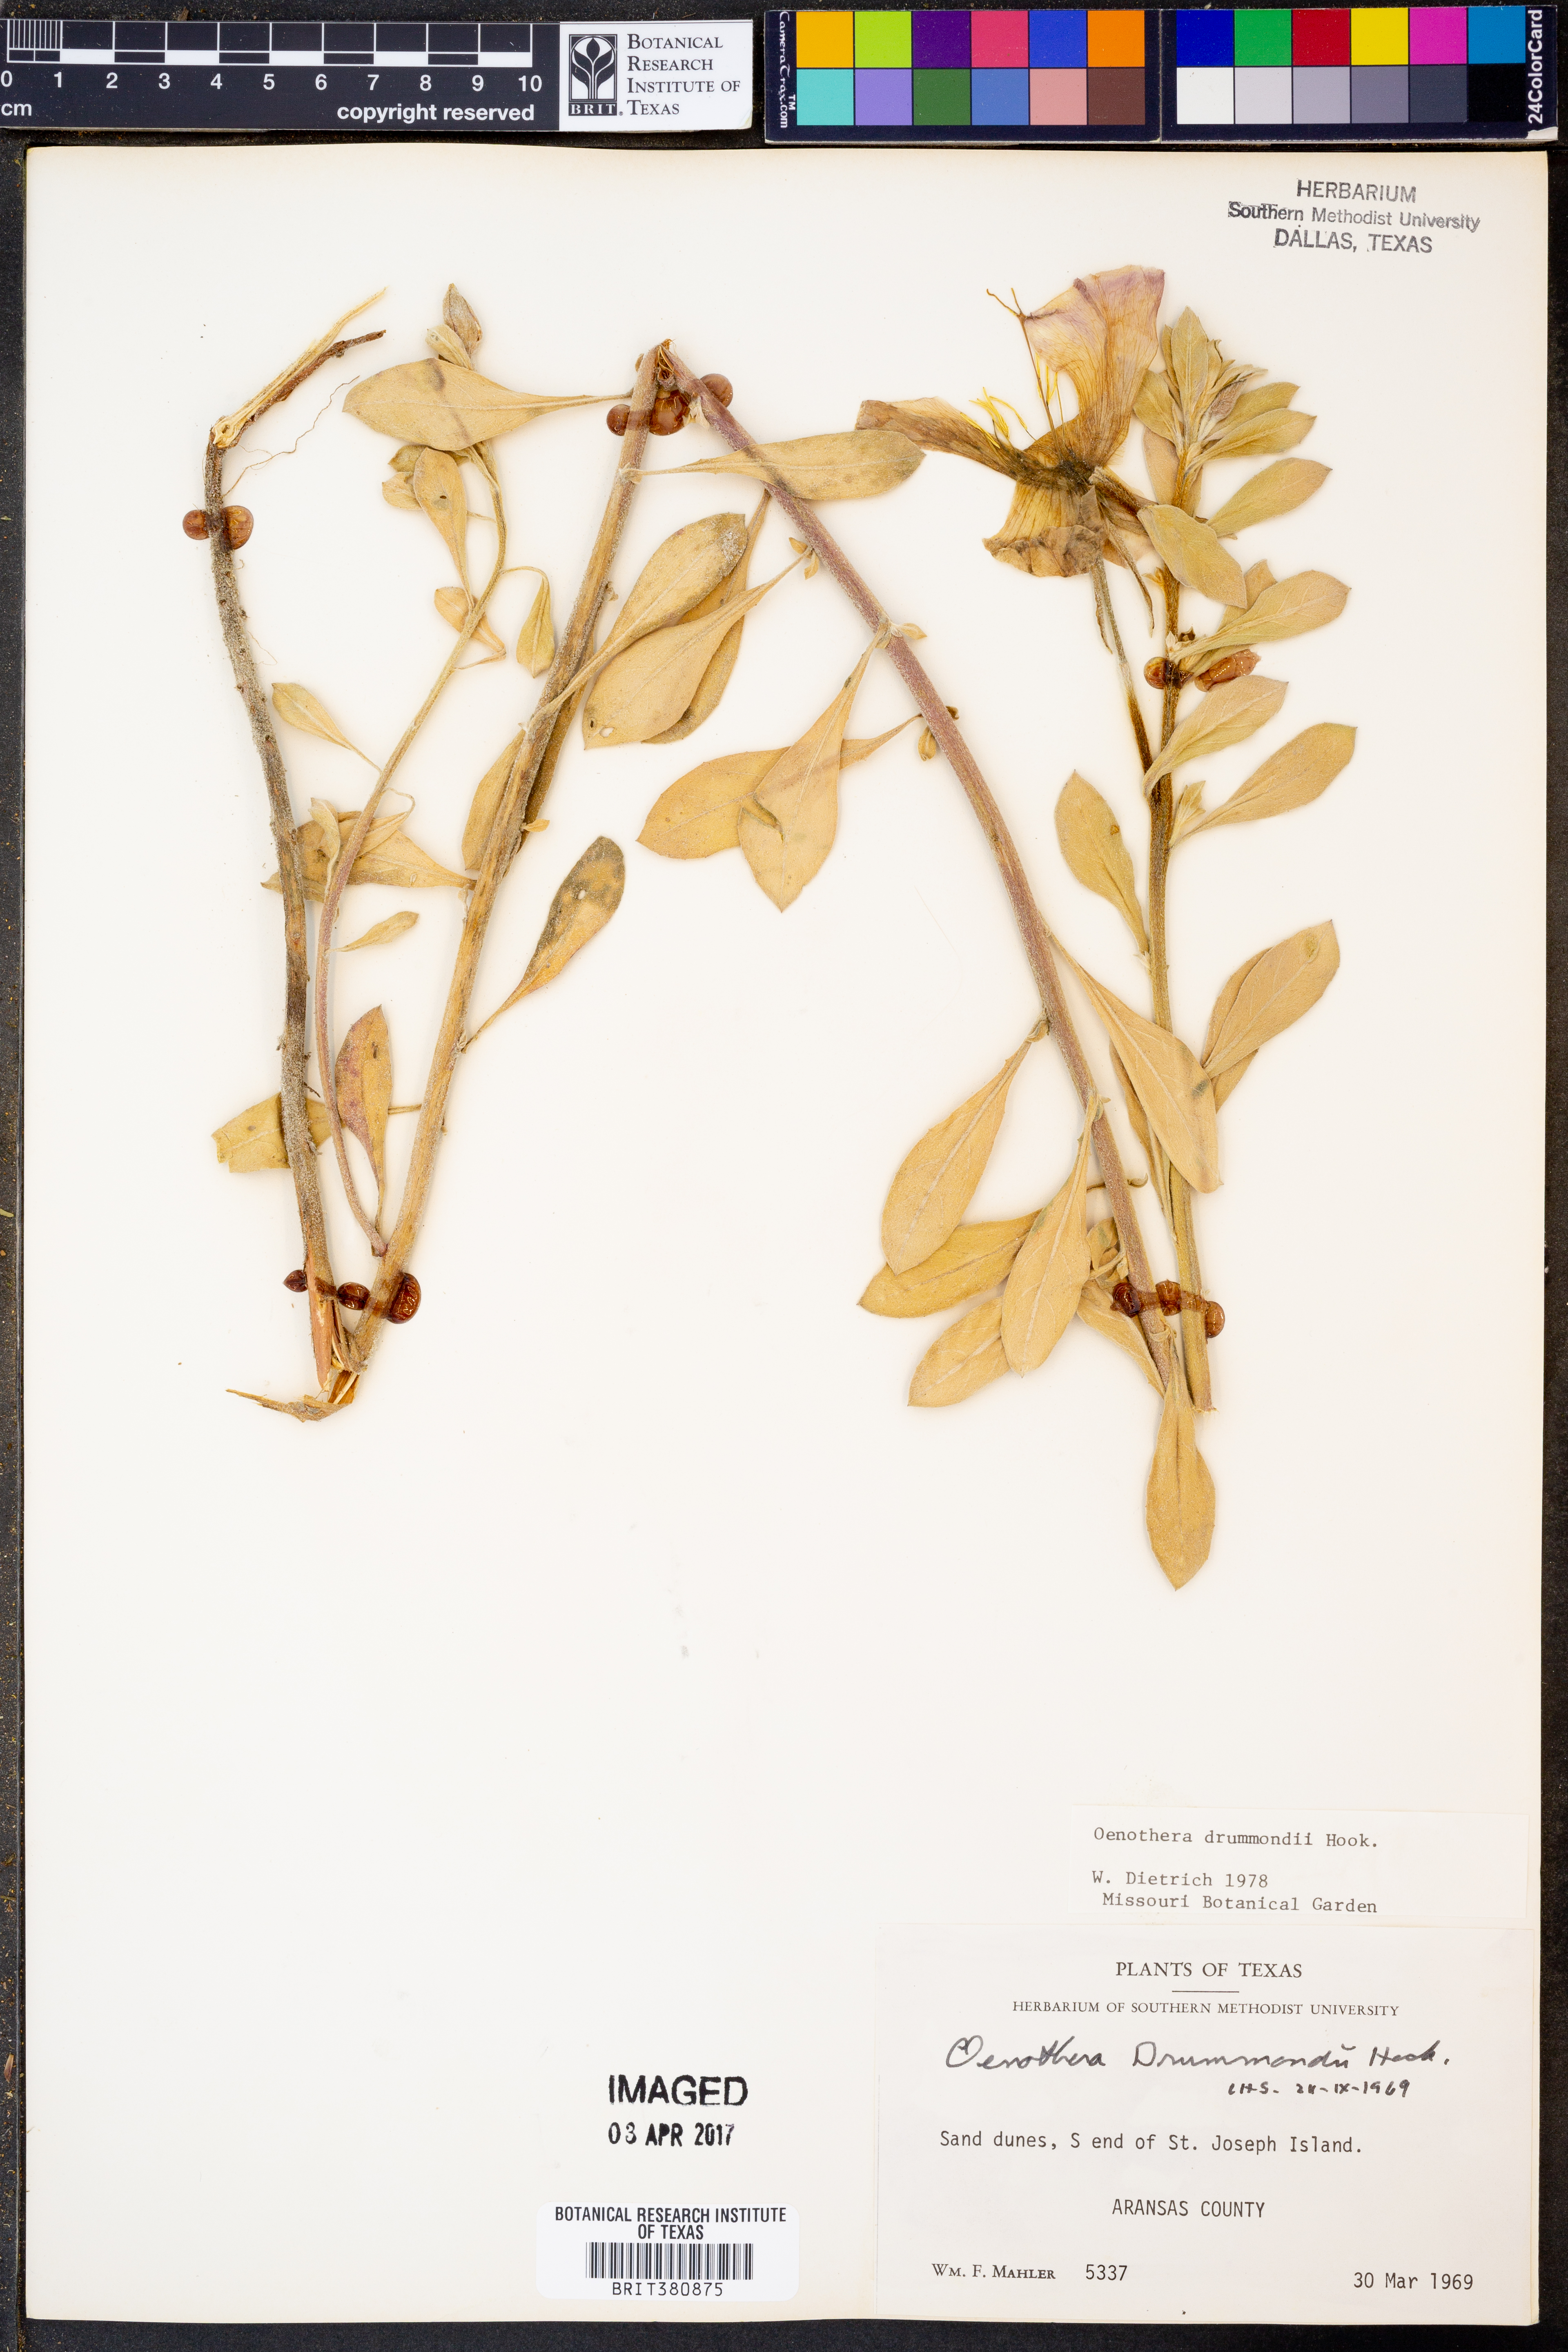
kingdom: Plantae
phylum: Tracheophyta
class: Magnoliopsida
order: Myrtales
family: Onagraceae
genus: Oenothera
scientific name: Oenothera drummondii
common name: Beach evening-primrose
